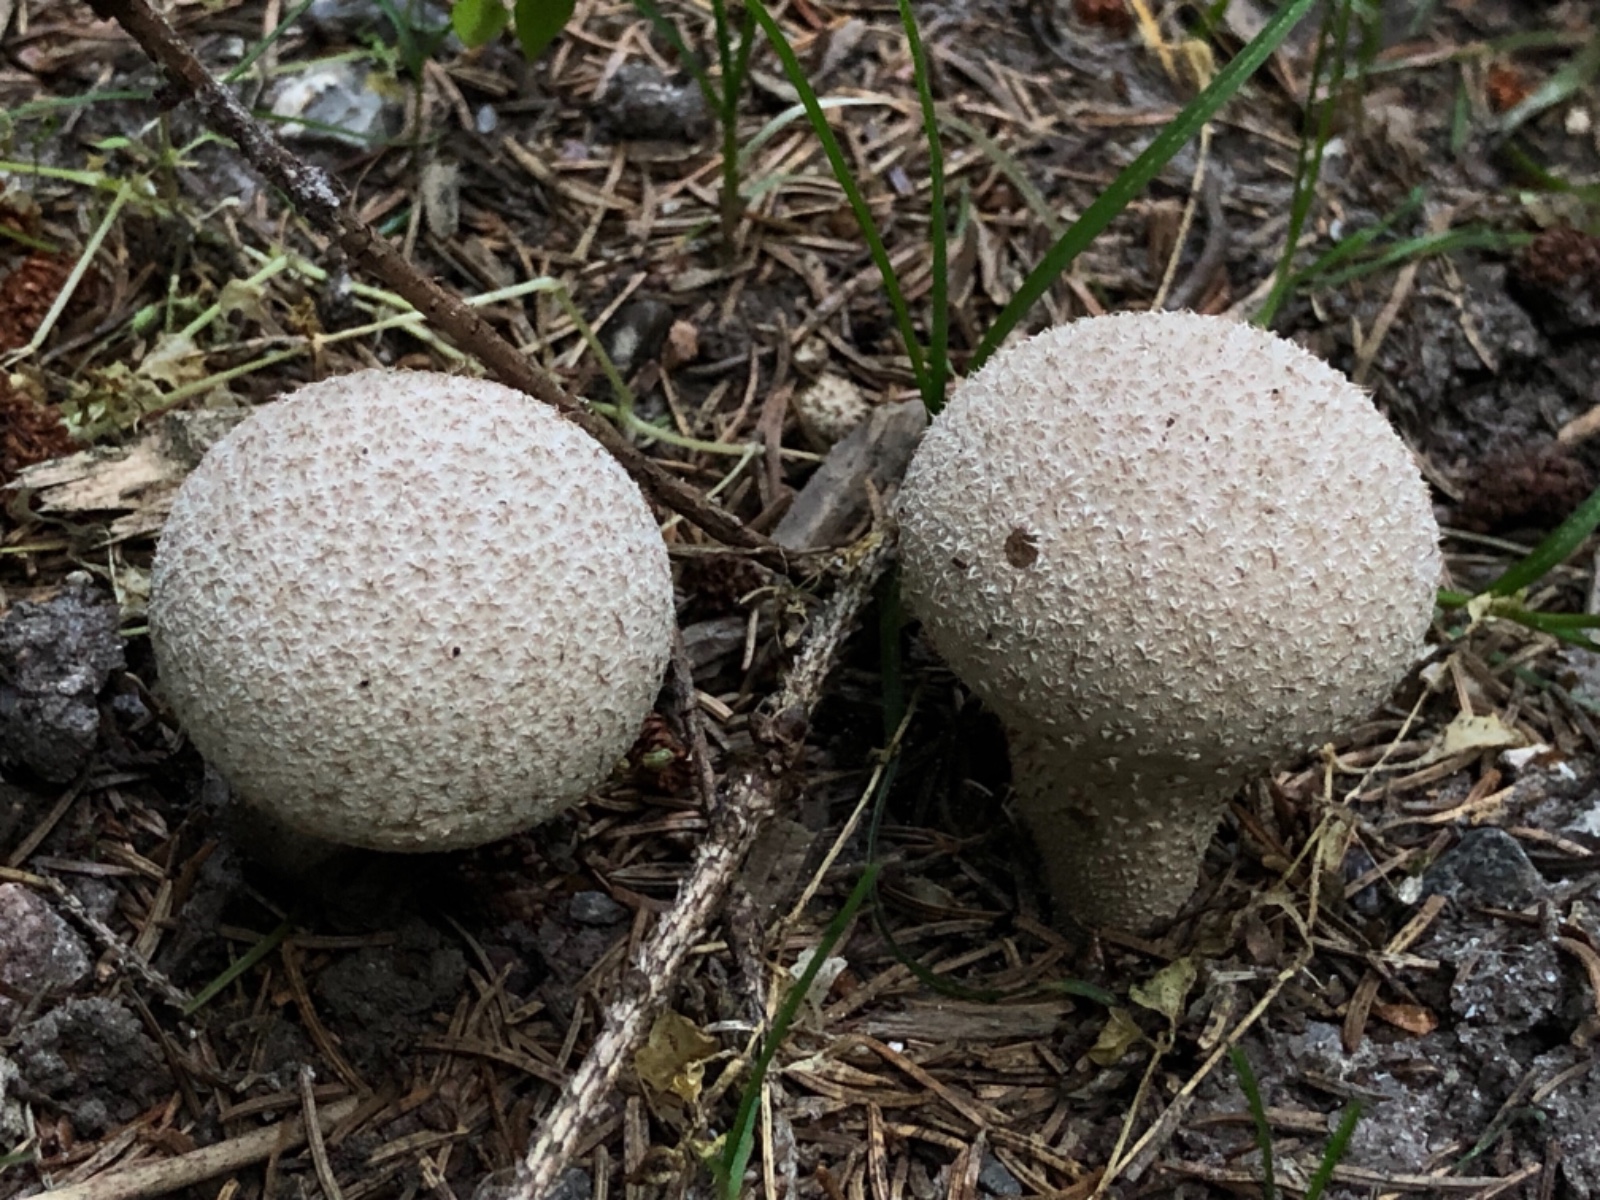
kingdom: Fungi
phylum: Basidiomycota
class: Agaricomycetes
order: Agaricales
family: Lycoperdaceae
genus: Lycoperdon
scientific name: Lycoperdon perlatum
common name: krystal-støvbold
